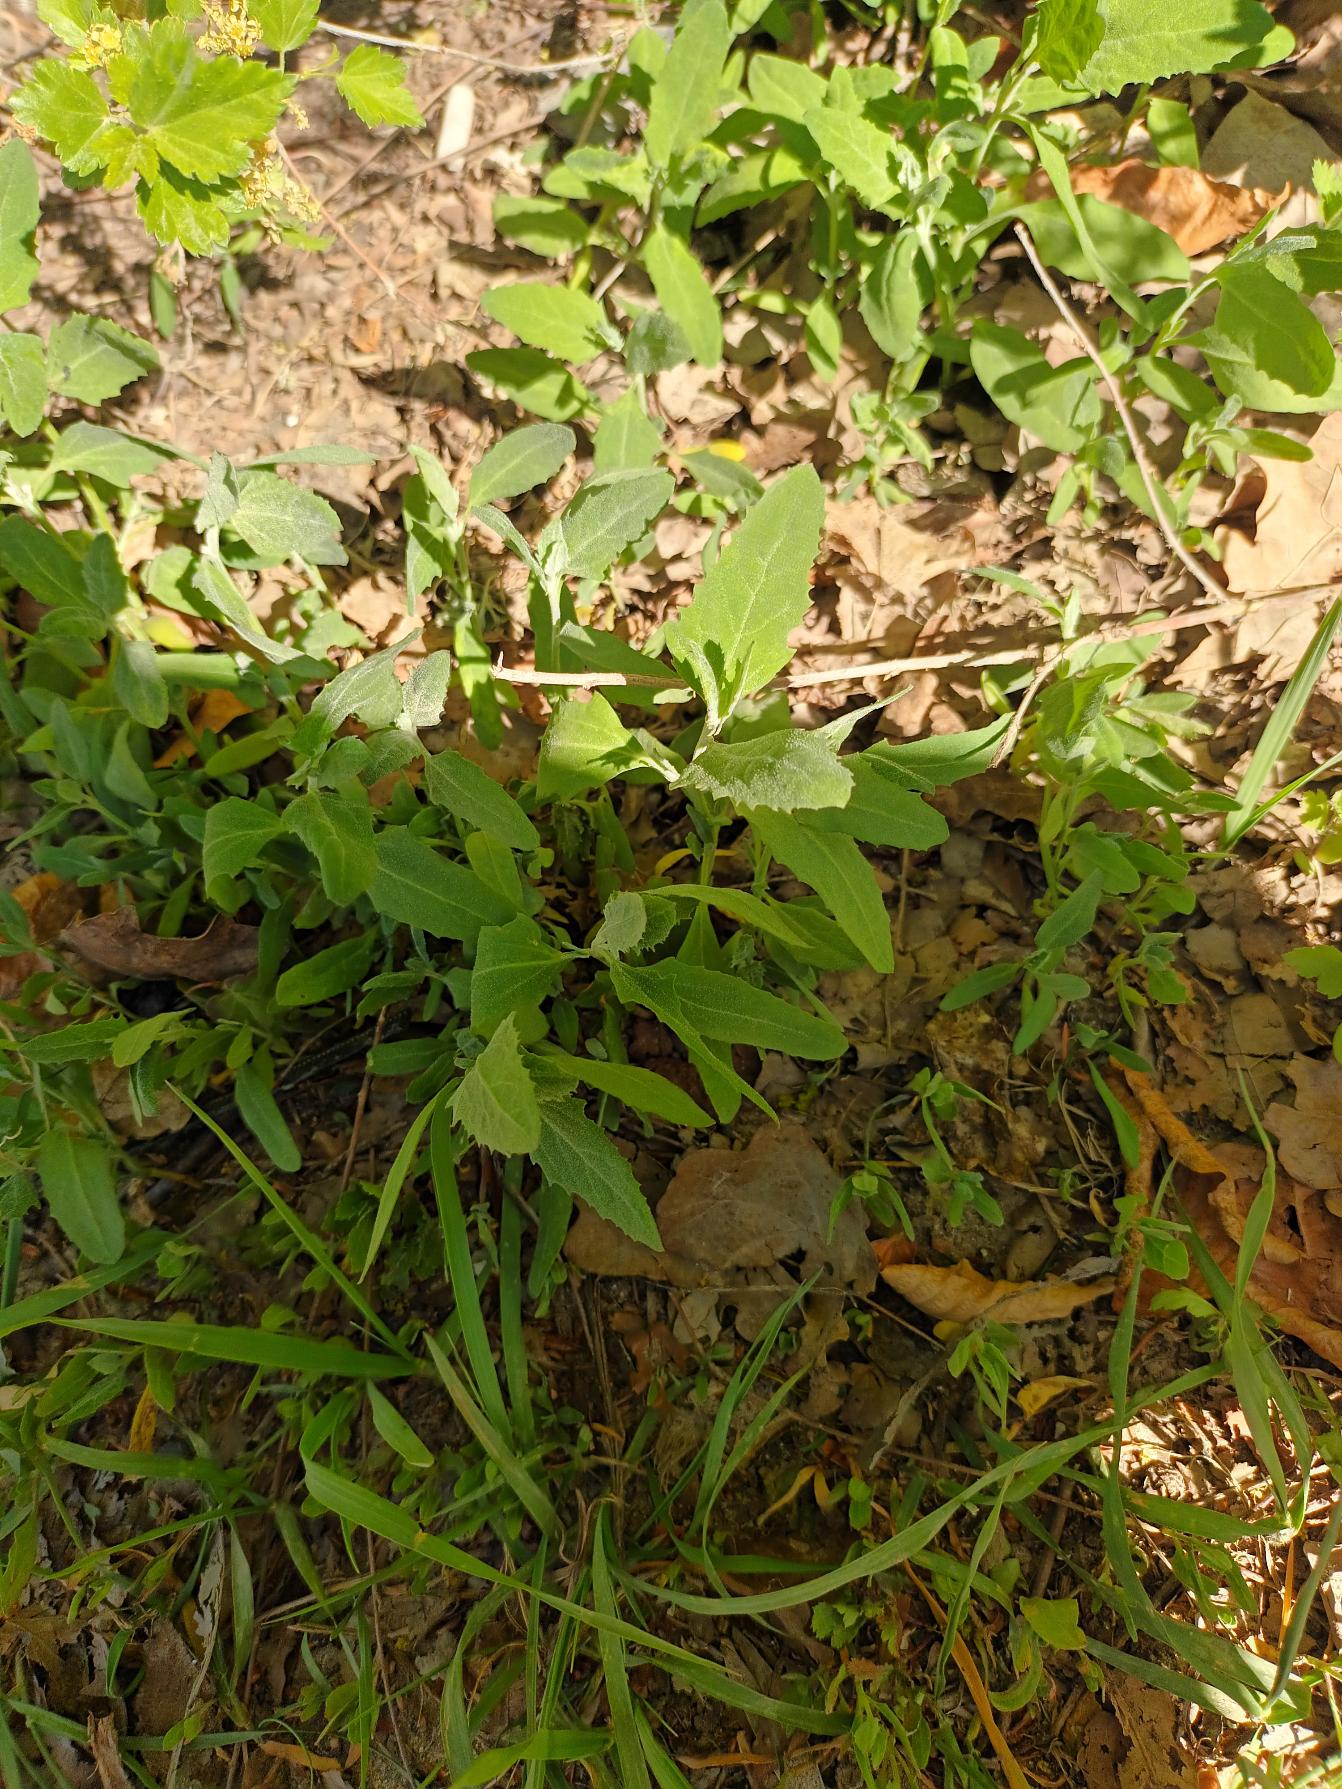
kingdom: Plantae
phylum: Tracheophyta
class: Magnoliopsida
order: Caryophyllales
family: Amaranthaceae
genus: Atriplex
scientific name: Atriplex patula
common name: Svine-mælde
